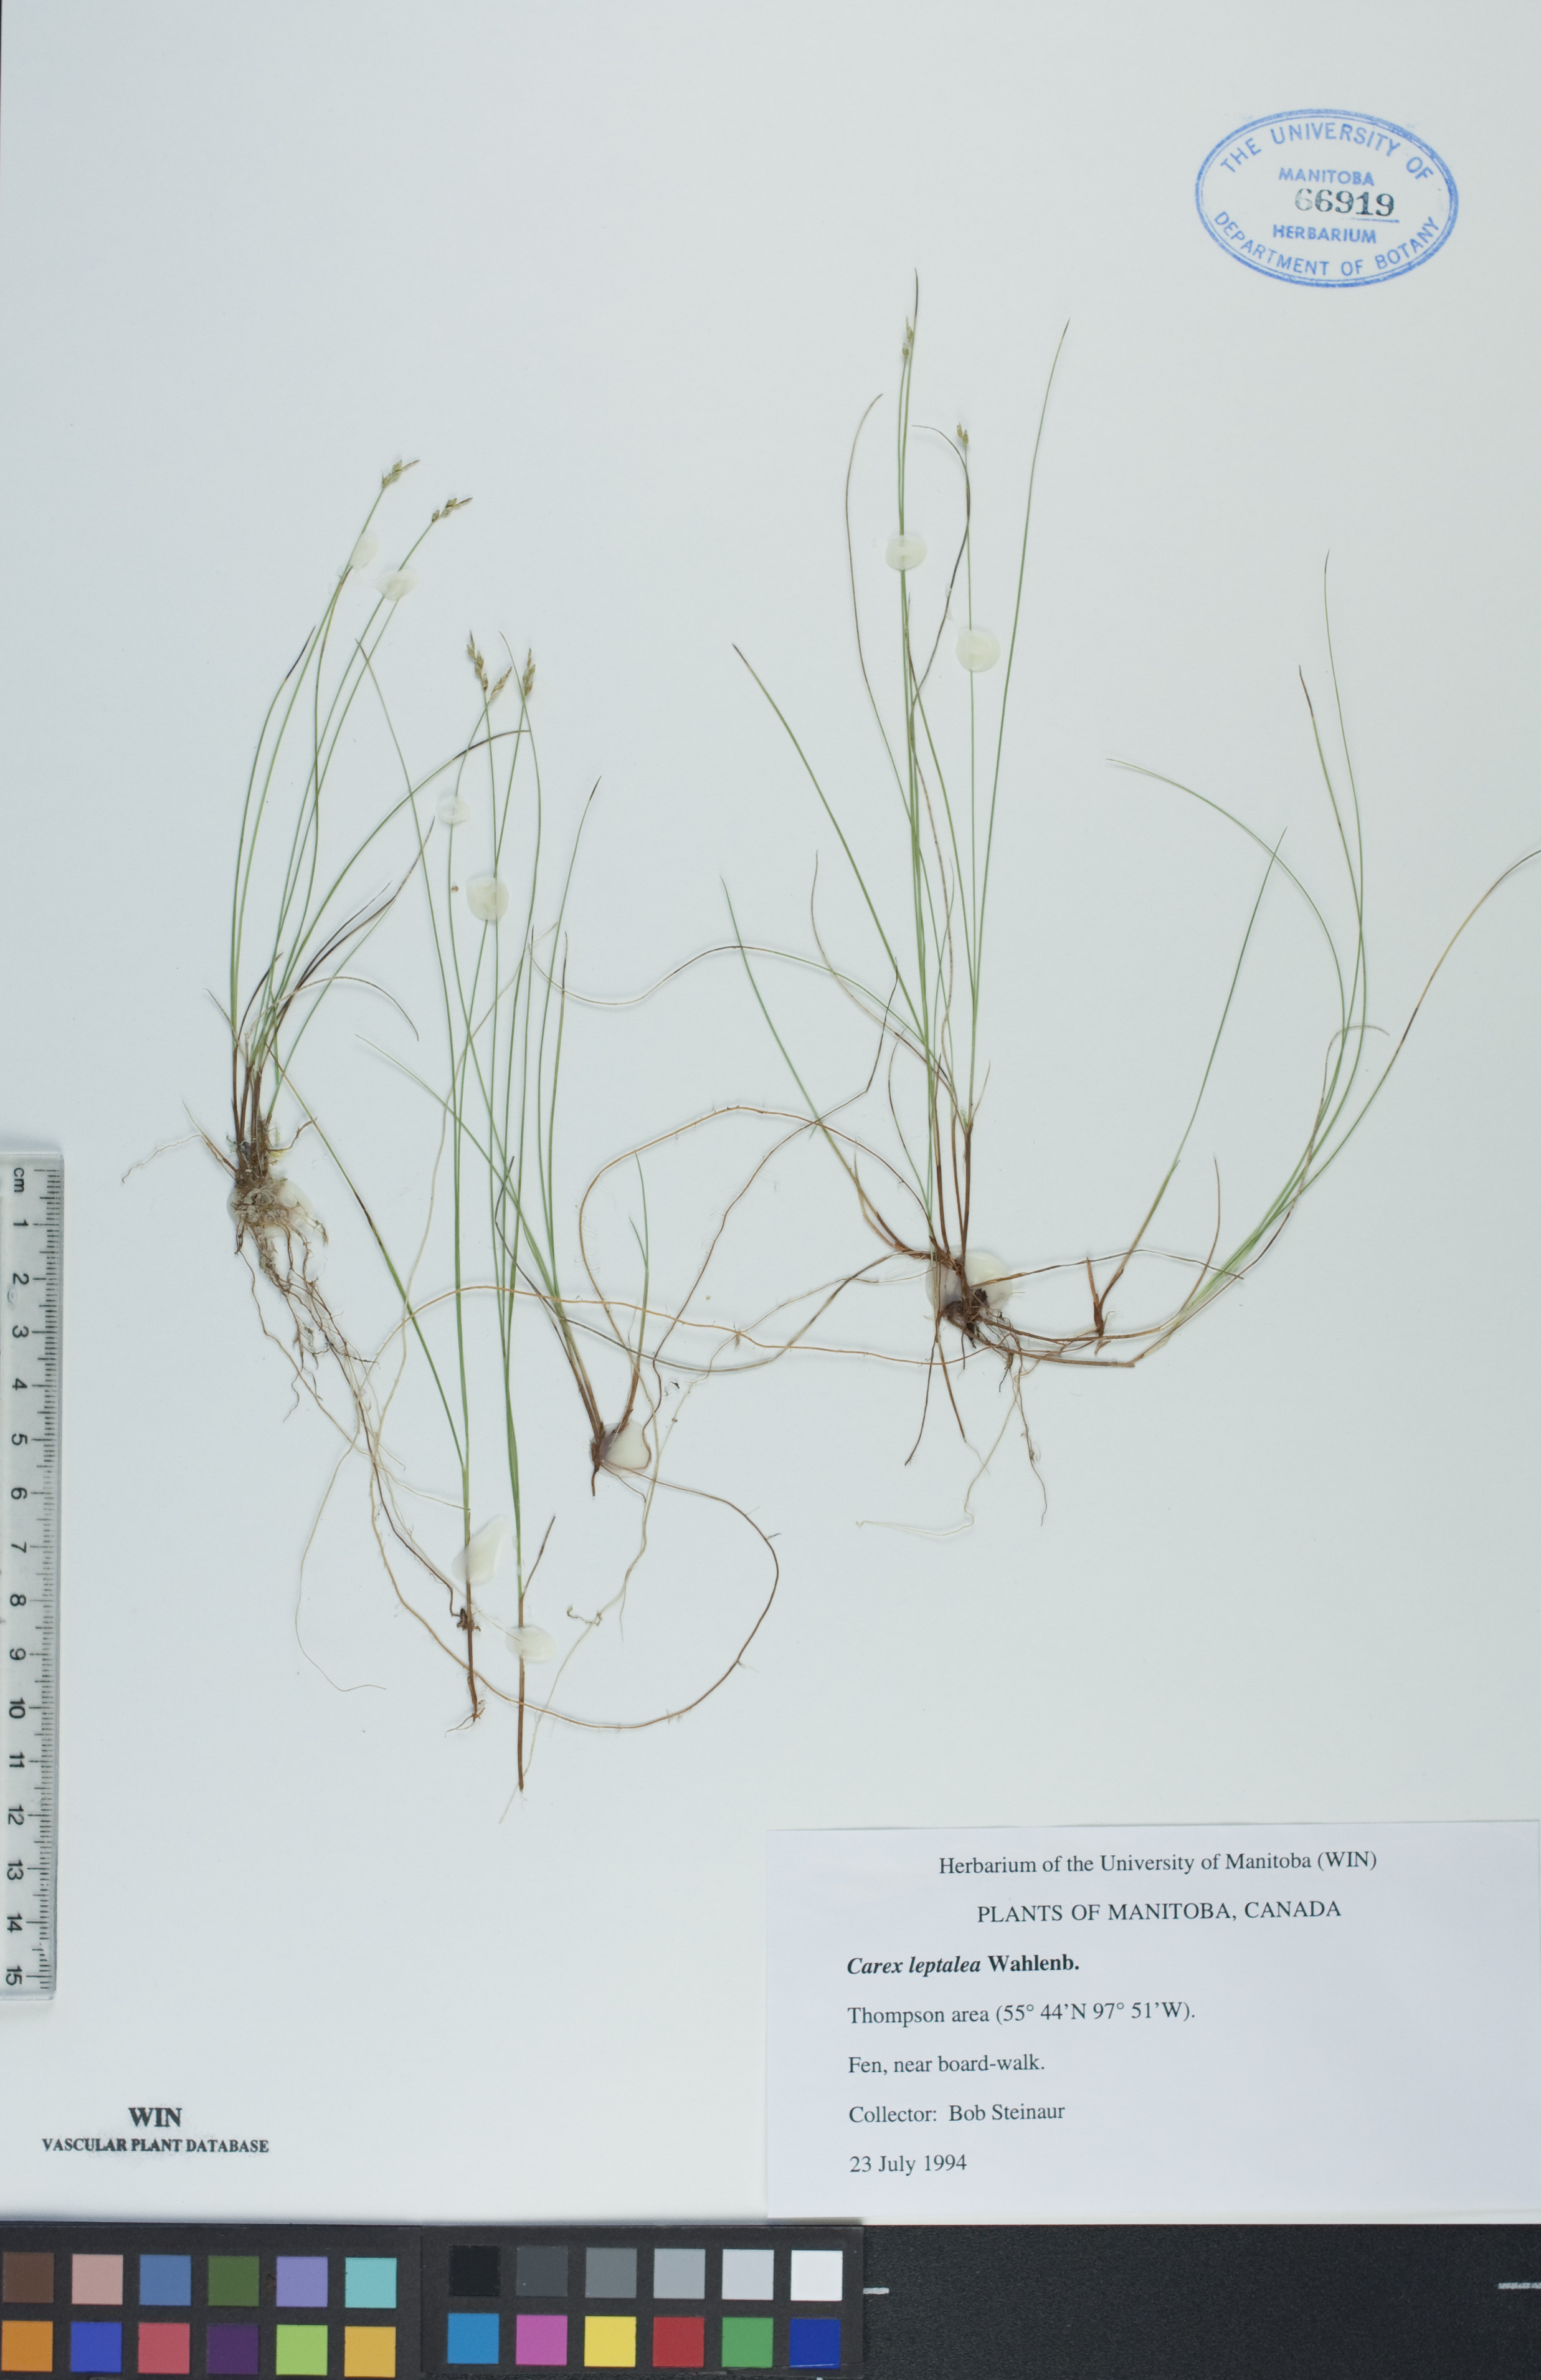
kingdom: Plantae
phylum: Tracheophyta
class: Liliopsida
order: Poales
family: Cyperaceae
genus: Carex
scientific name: Carex leptalea
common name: Bristly-stalked sedge
